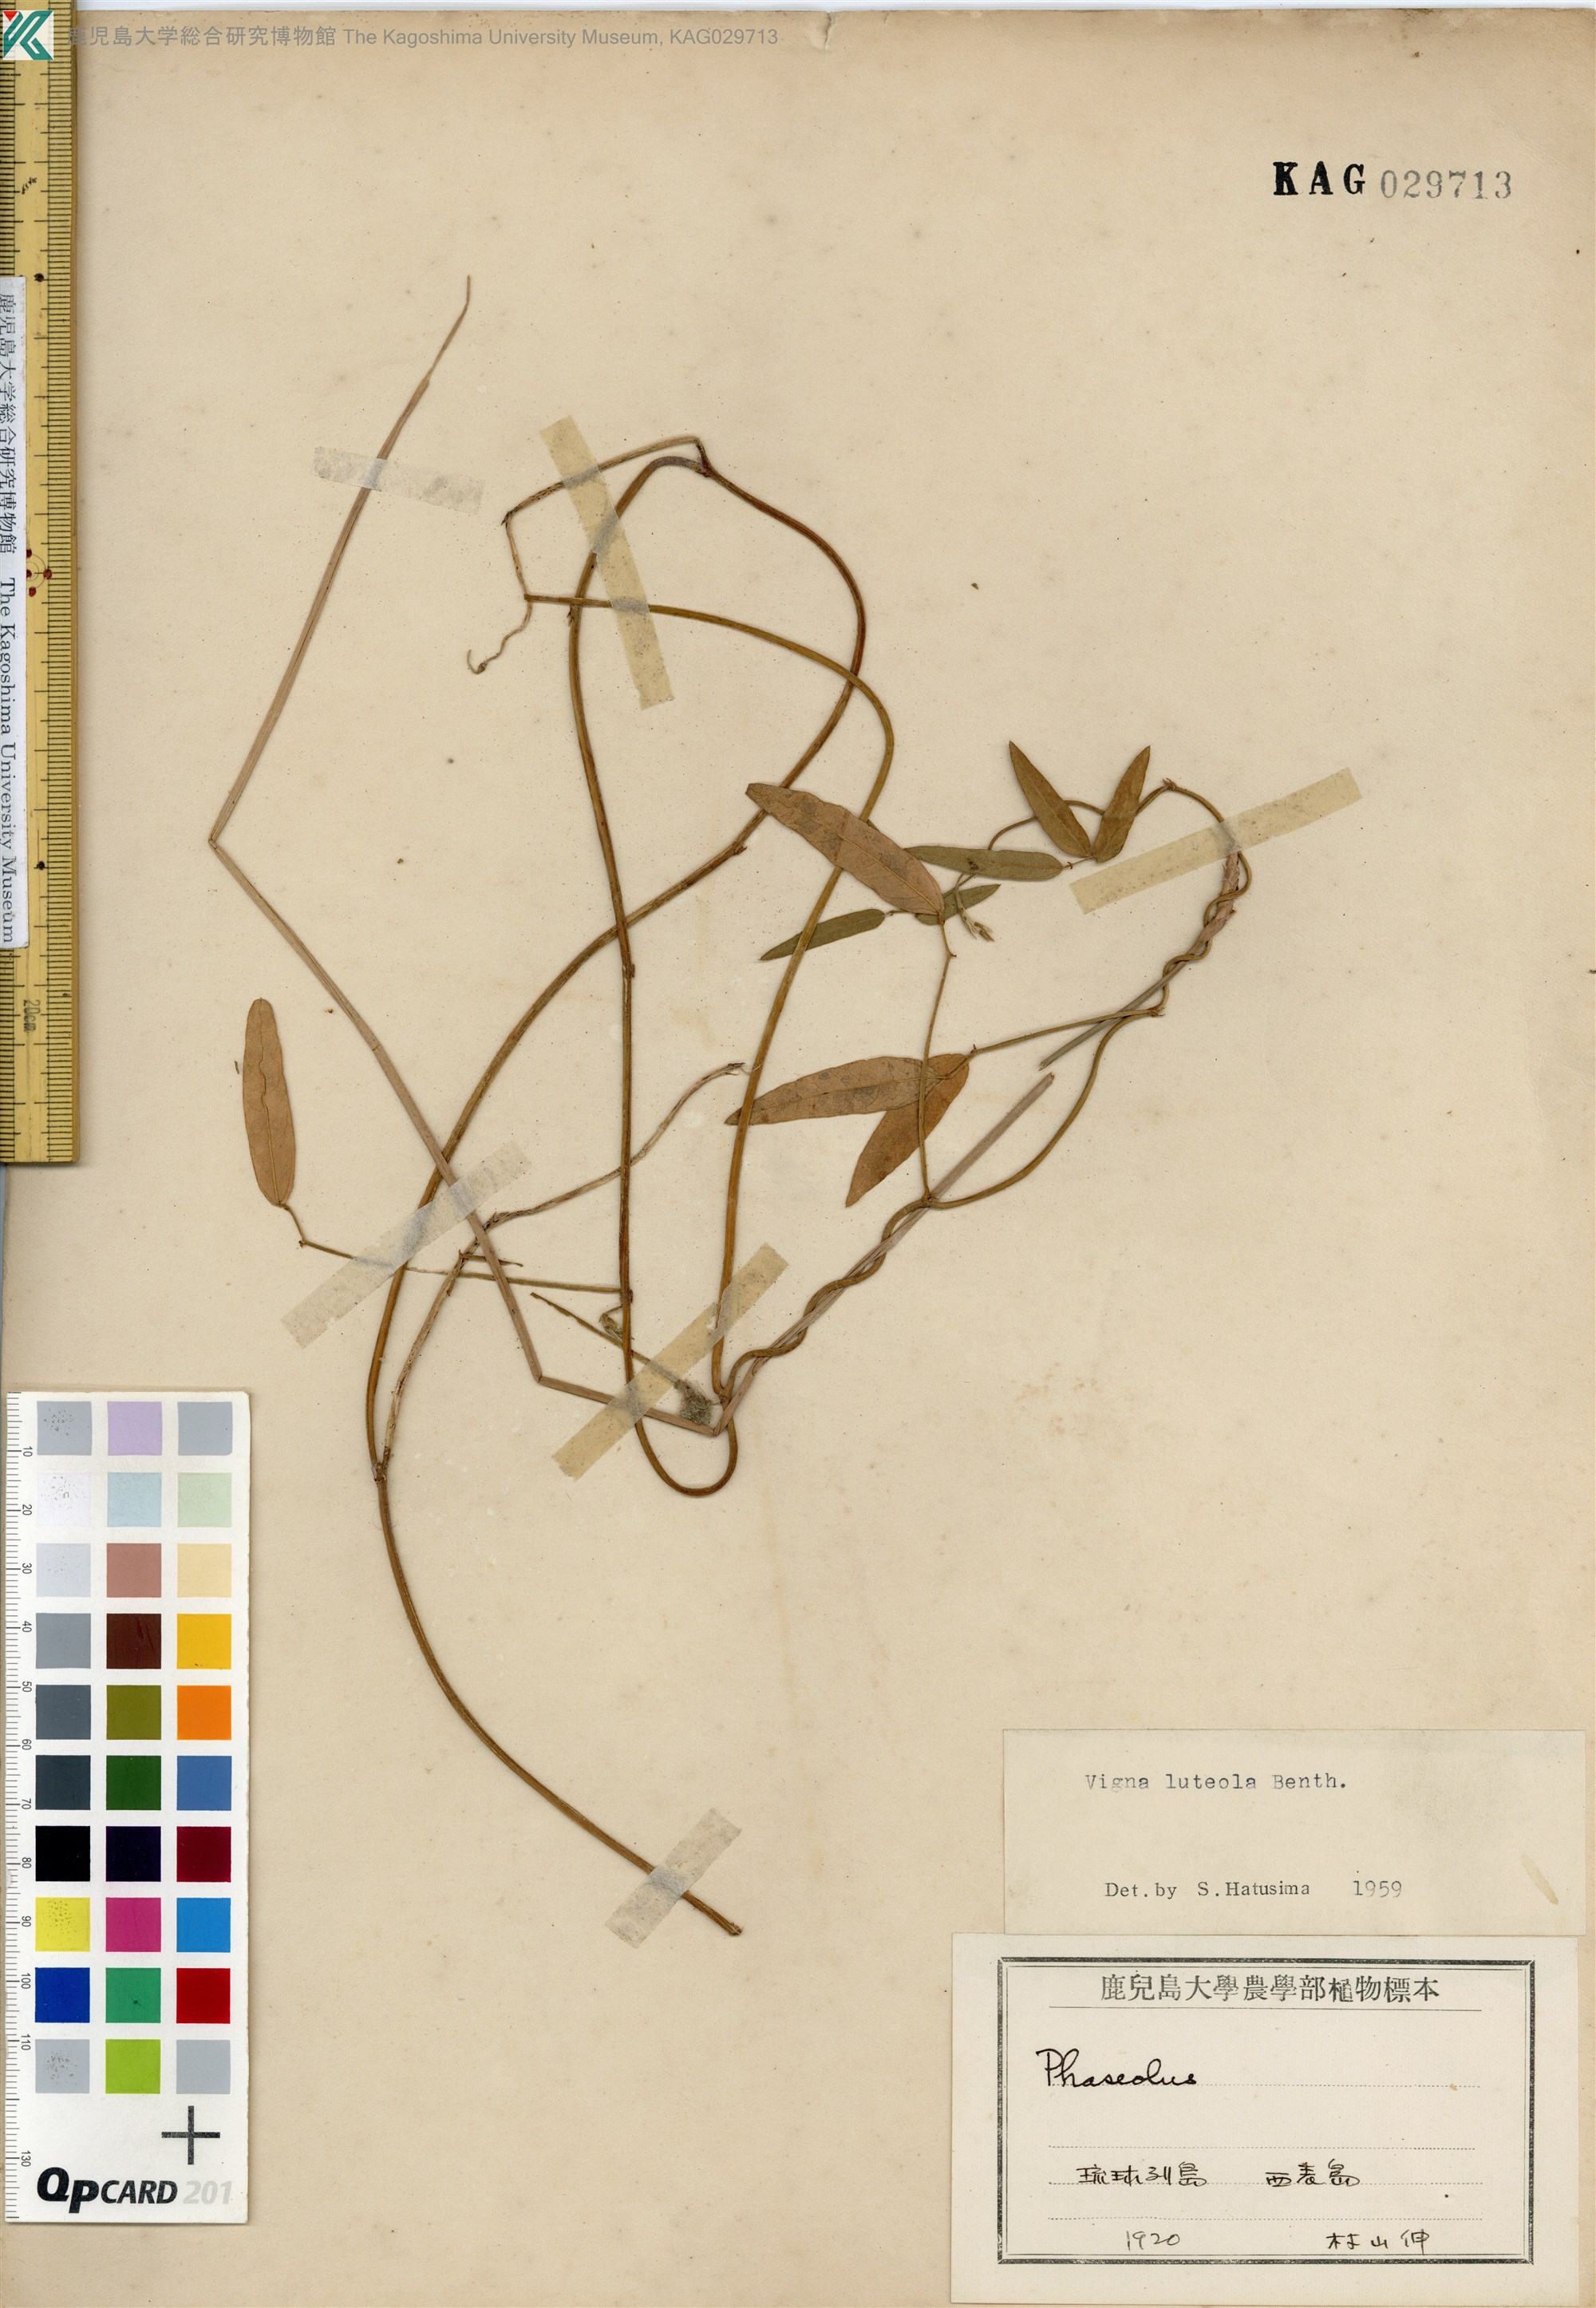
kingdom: Plantae
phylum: Tracheophyta
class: Magnoliopsida
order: Fabales
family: Fabaceae
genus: Vigna
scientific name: Vigna luteola
